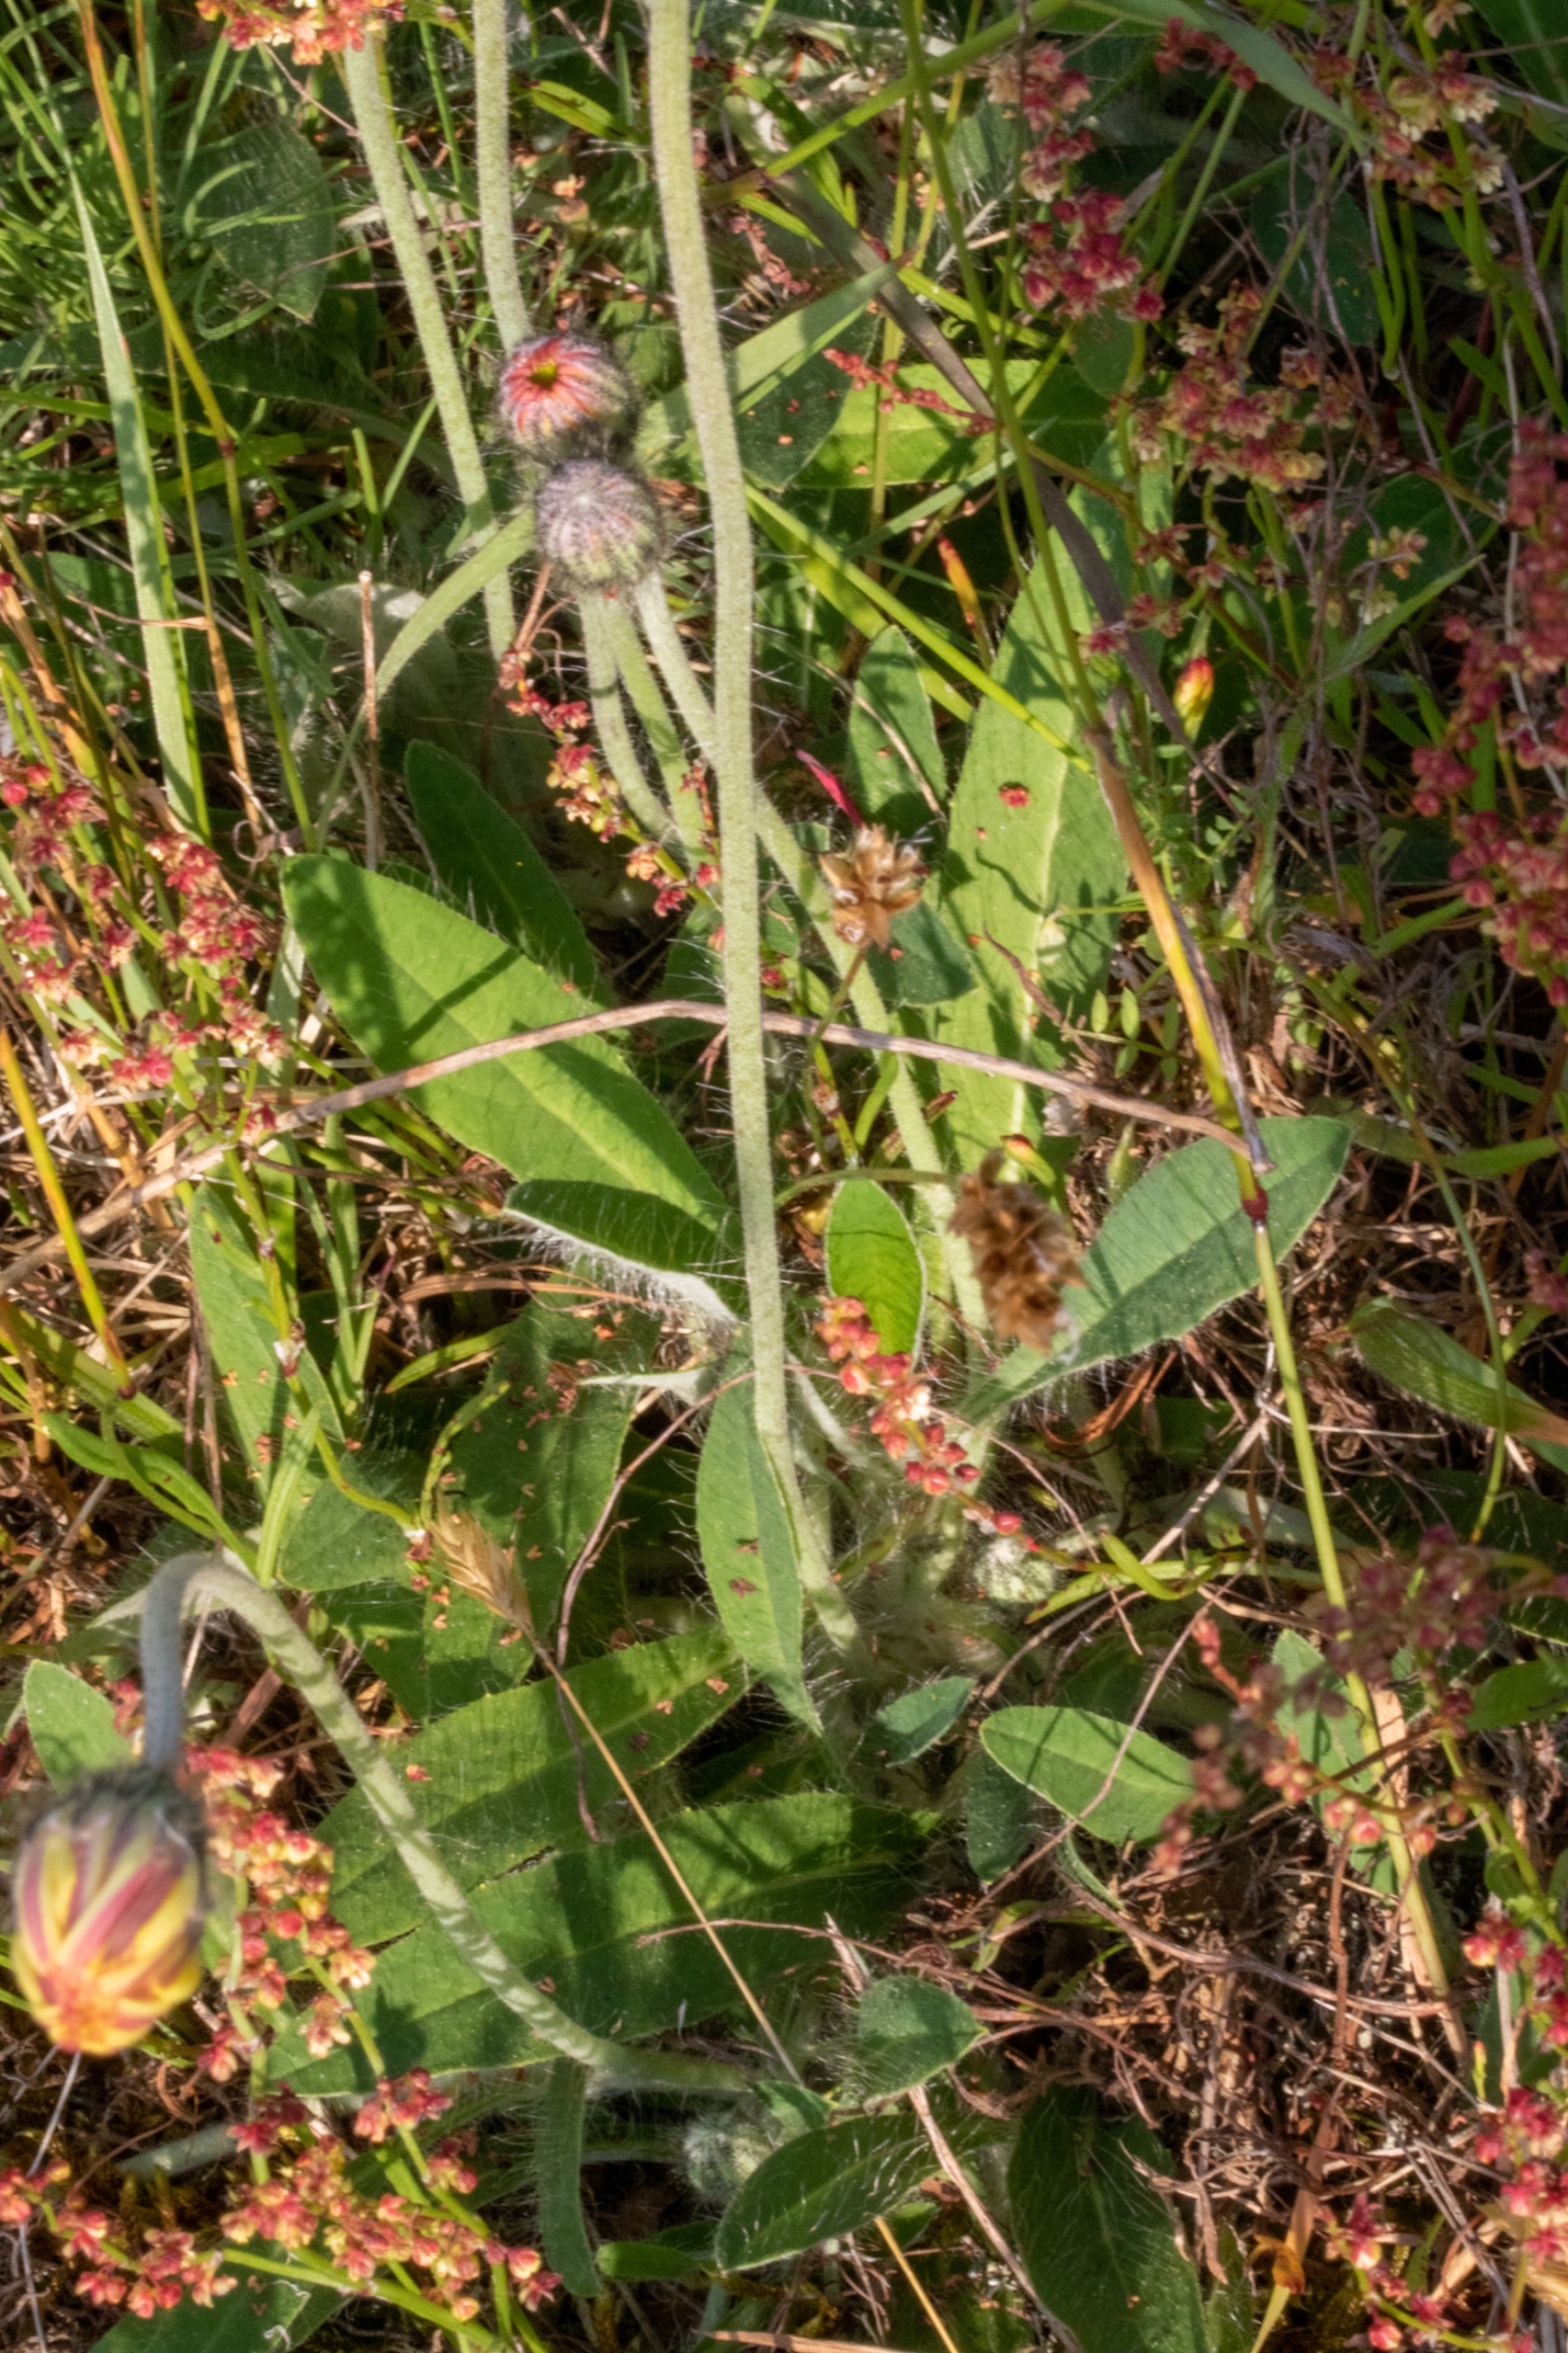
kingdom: Plantae
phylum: Tracheophyta
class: Magnoliopsida
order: Asterales
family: Asteraceae
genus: Pilosella
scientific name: Pilosella officinarum
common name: Håret høgeurt
